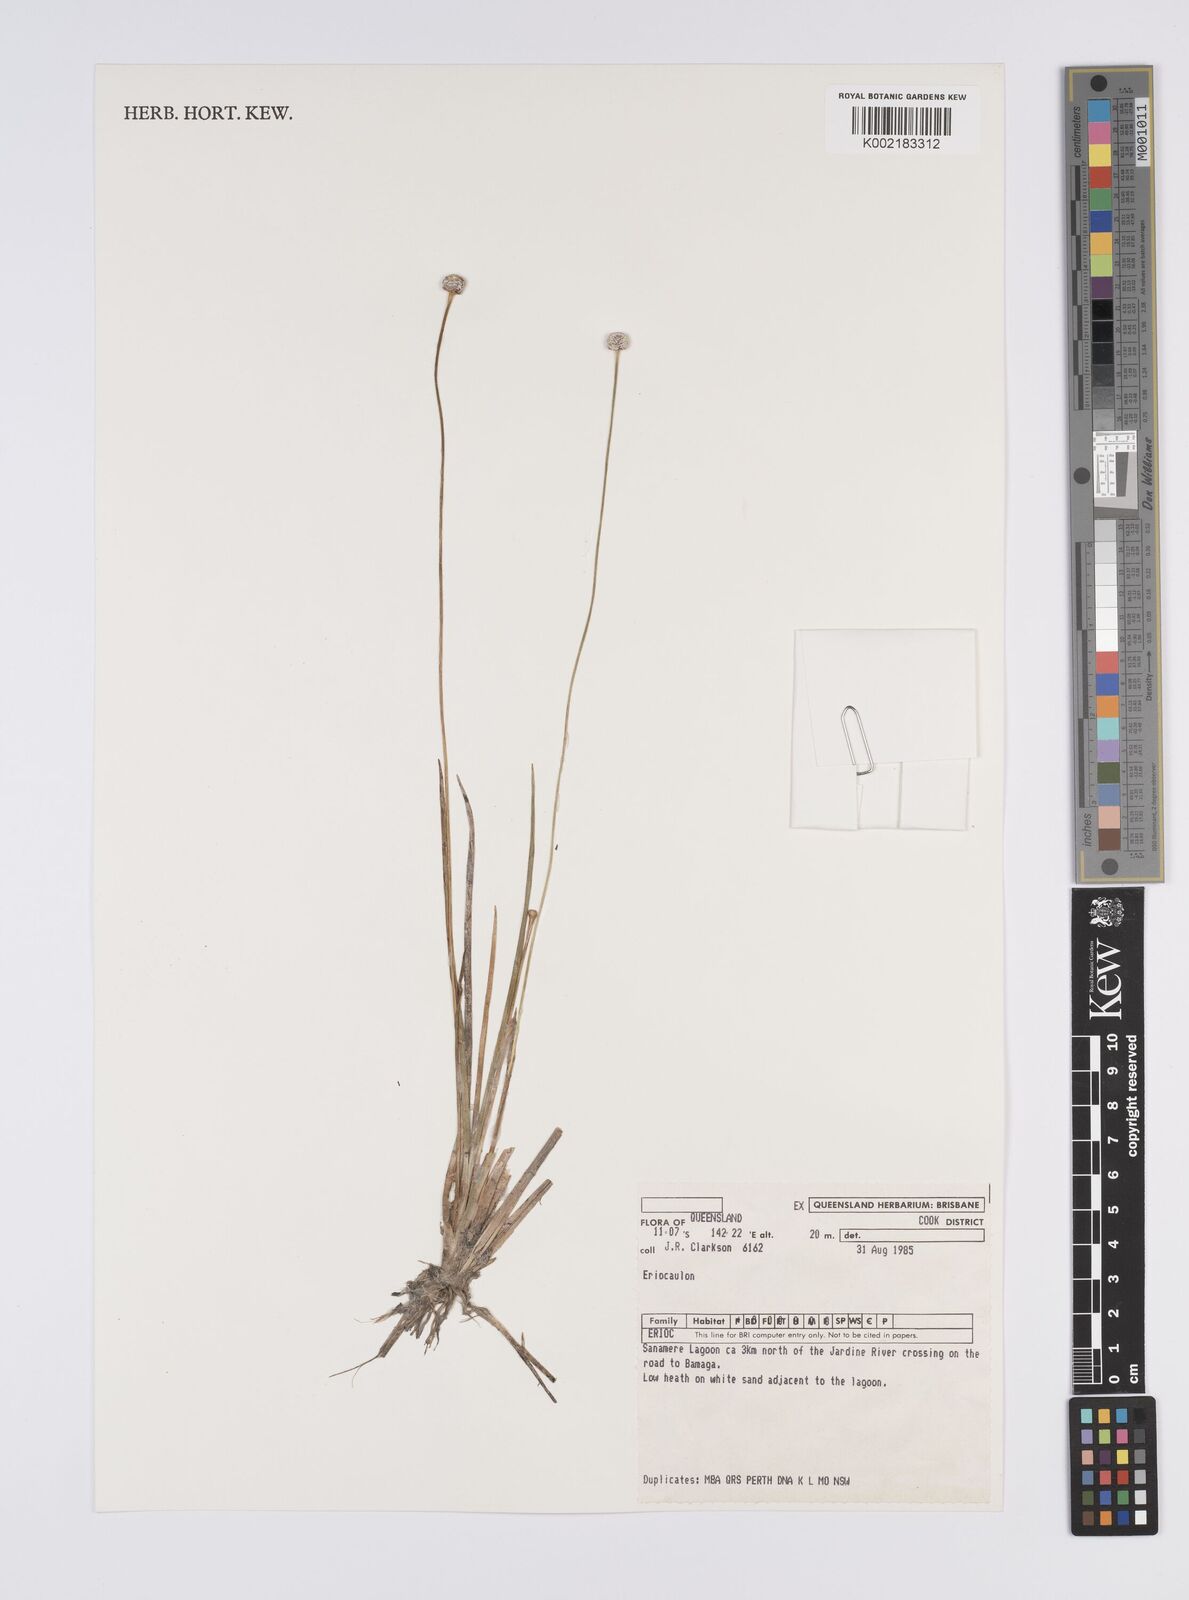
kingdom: Plantae
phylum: Tracheophyta
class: Liliopsida
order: Poales
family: Eriocaulaceae
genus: Eriocaulon
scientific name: Eriocaulon
